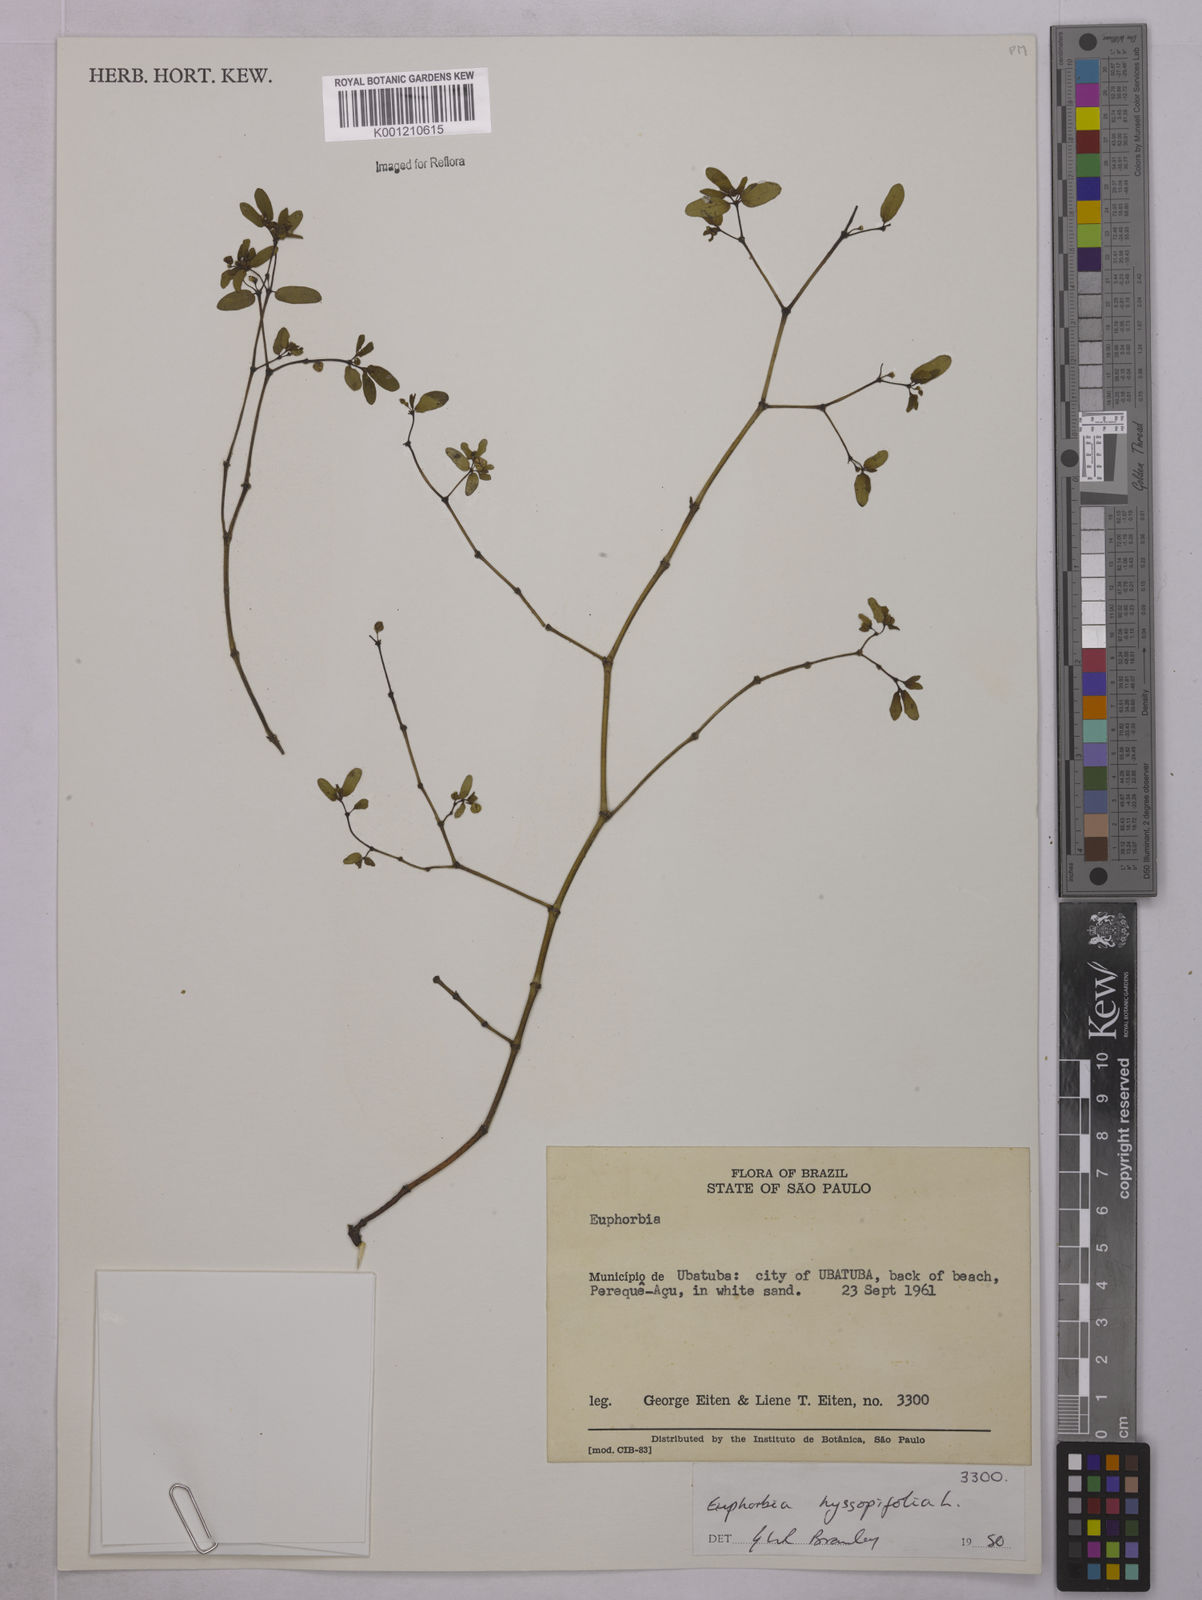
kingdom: Plantae
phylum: Tracheophyta
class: Magnoliopsida
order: Malpighiales
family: Euphorbiaceae
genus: Euphorbia
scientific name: Euphorbia hyssopifolia
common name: Hyssopleaf sandmat
